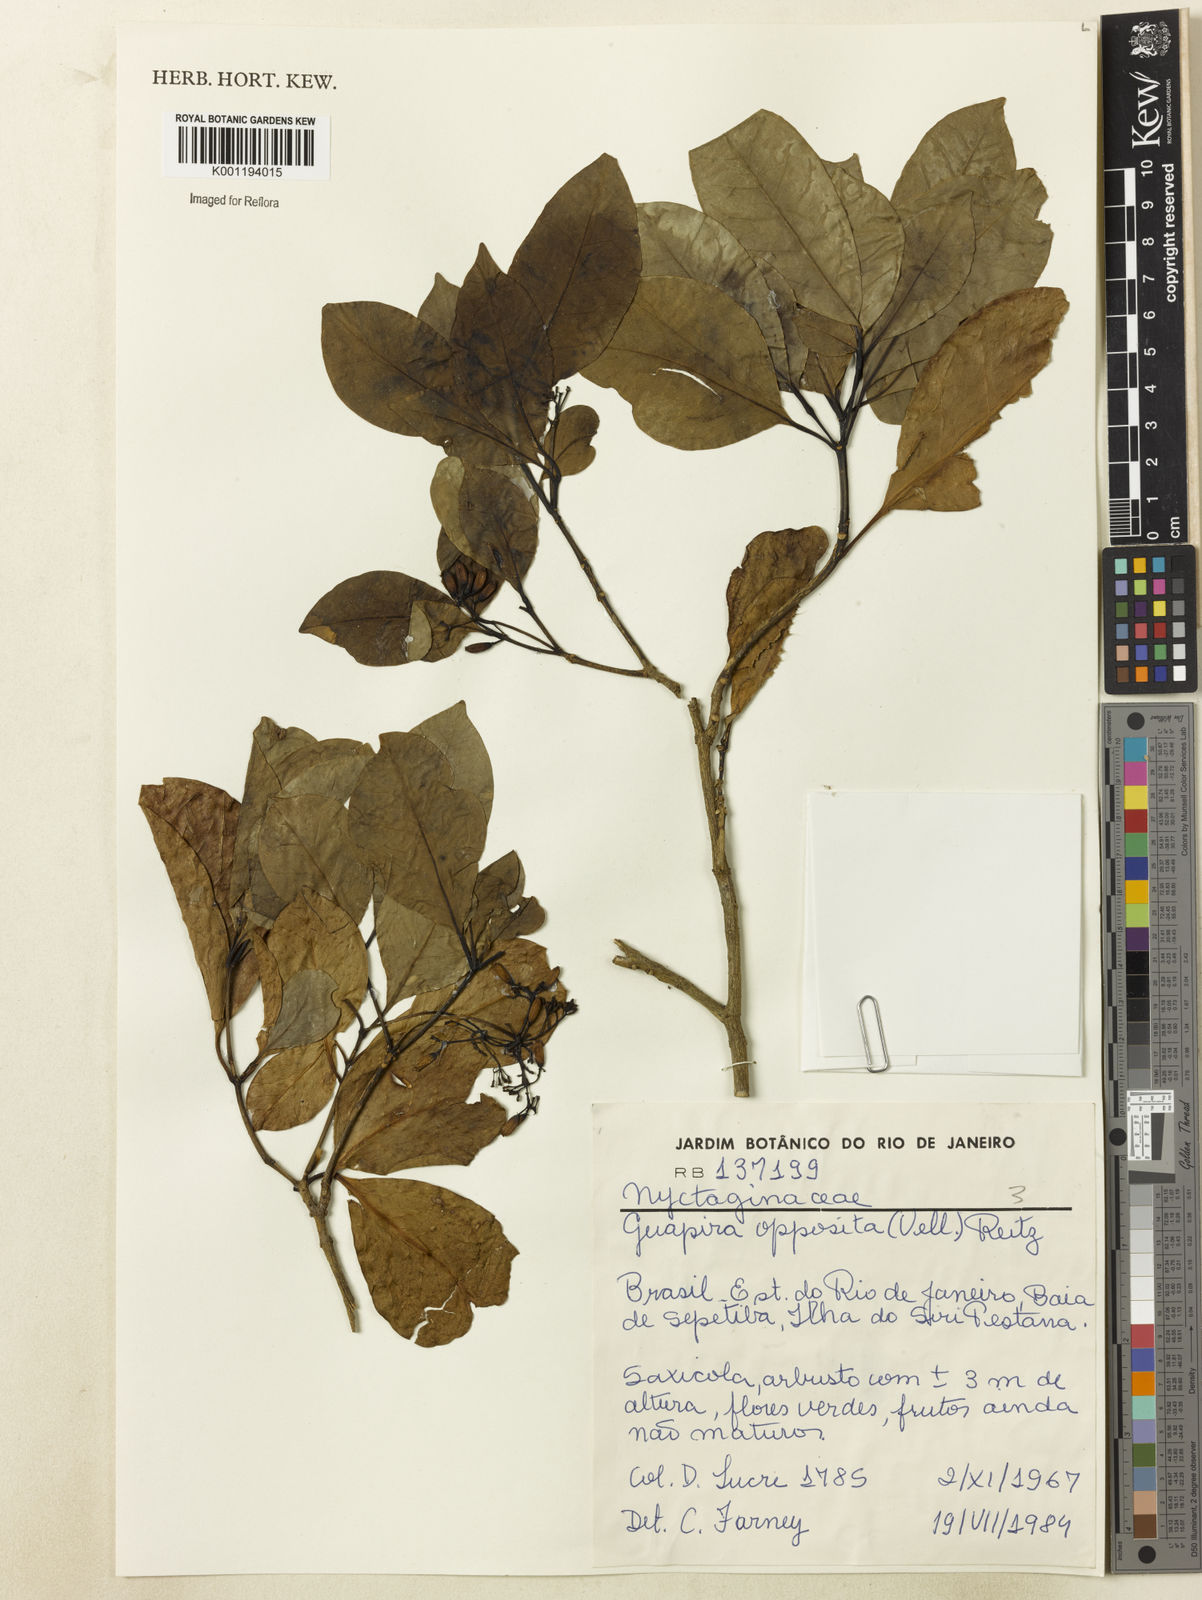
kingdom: Plantae
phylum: Tracheophyta
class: Magnoliopsida
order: Caryophyllales
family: Nyctaginaceae
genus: Guapira
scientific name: Guapira opposita
